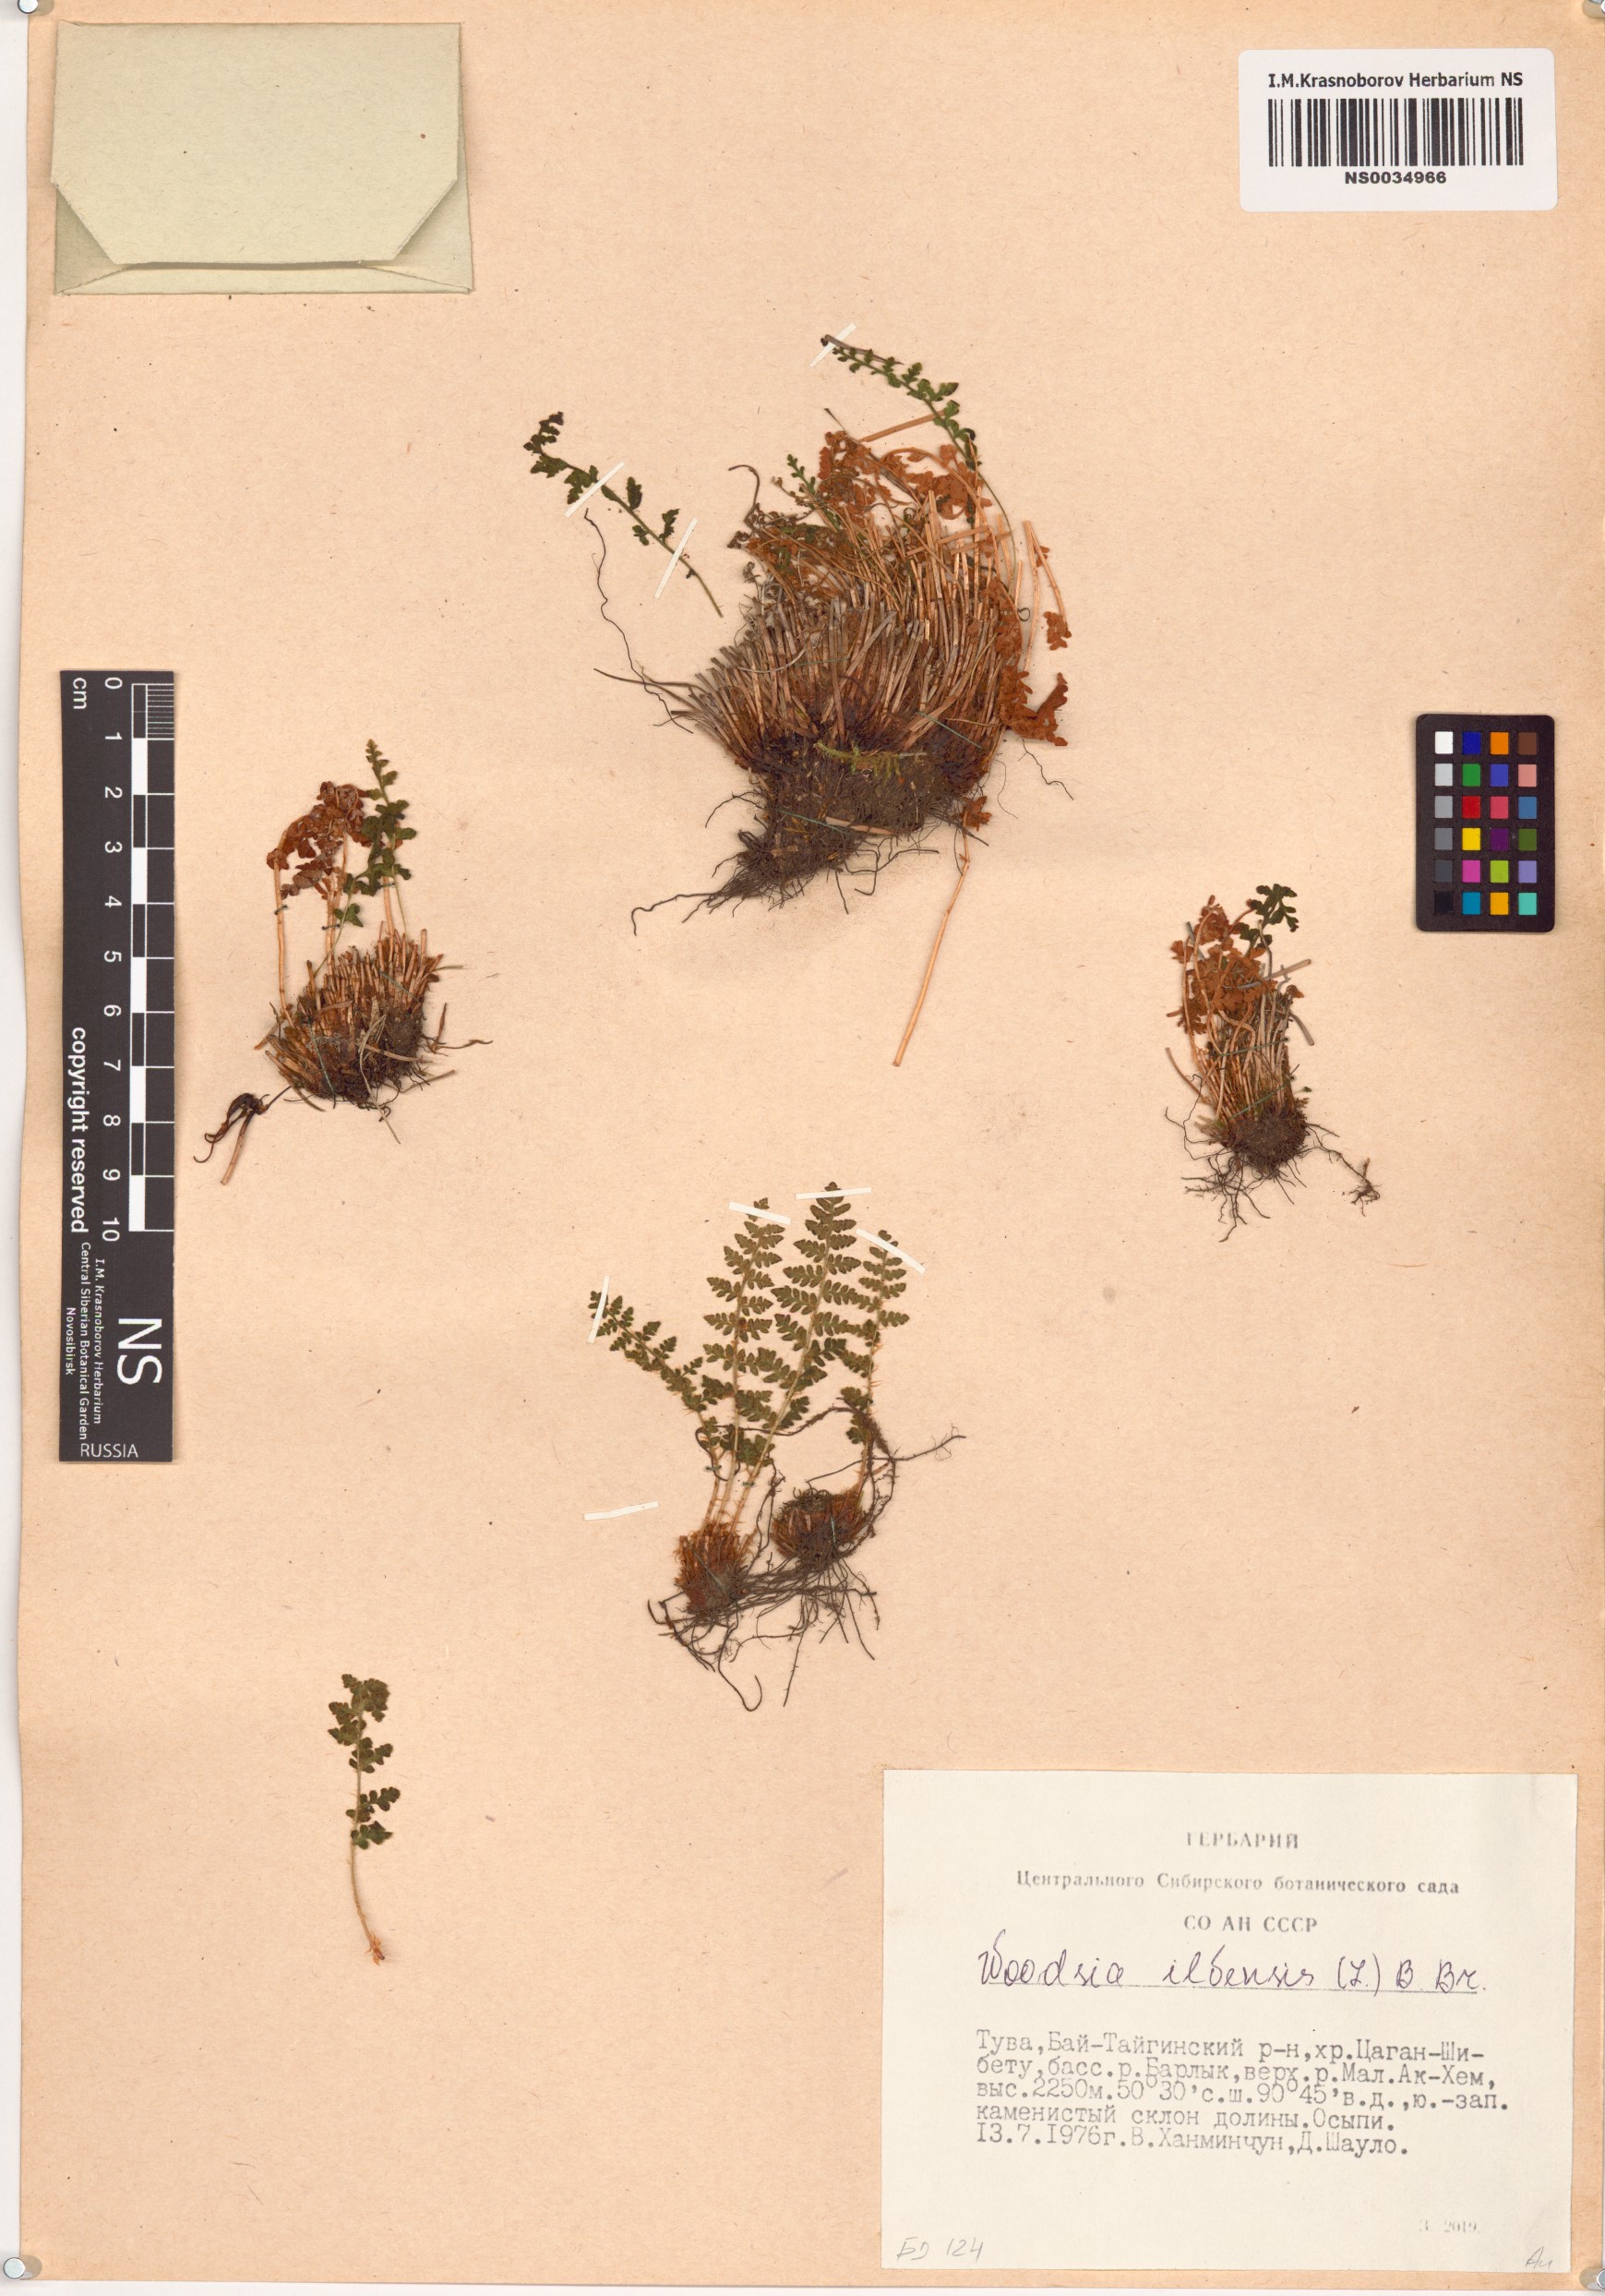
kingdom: Plantae
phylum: Tracheophyta
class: Polypodiopsida
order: Polypodiales
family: Woodsiaceae
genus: Woodsia
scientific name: Woodsia ilvensis
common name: Fragrant woodsia
